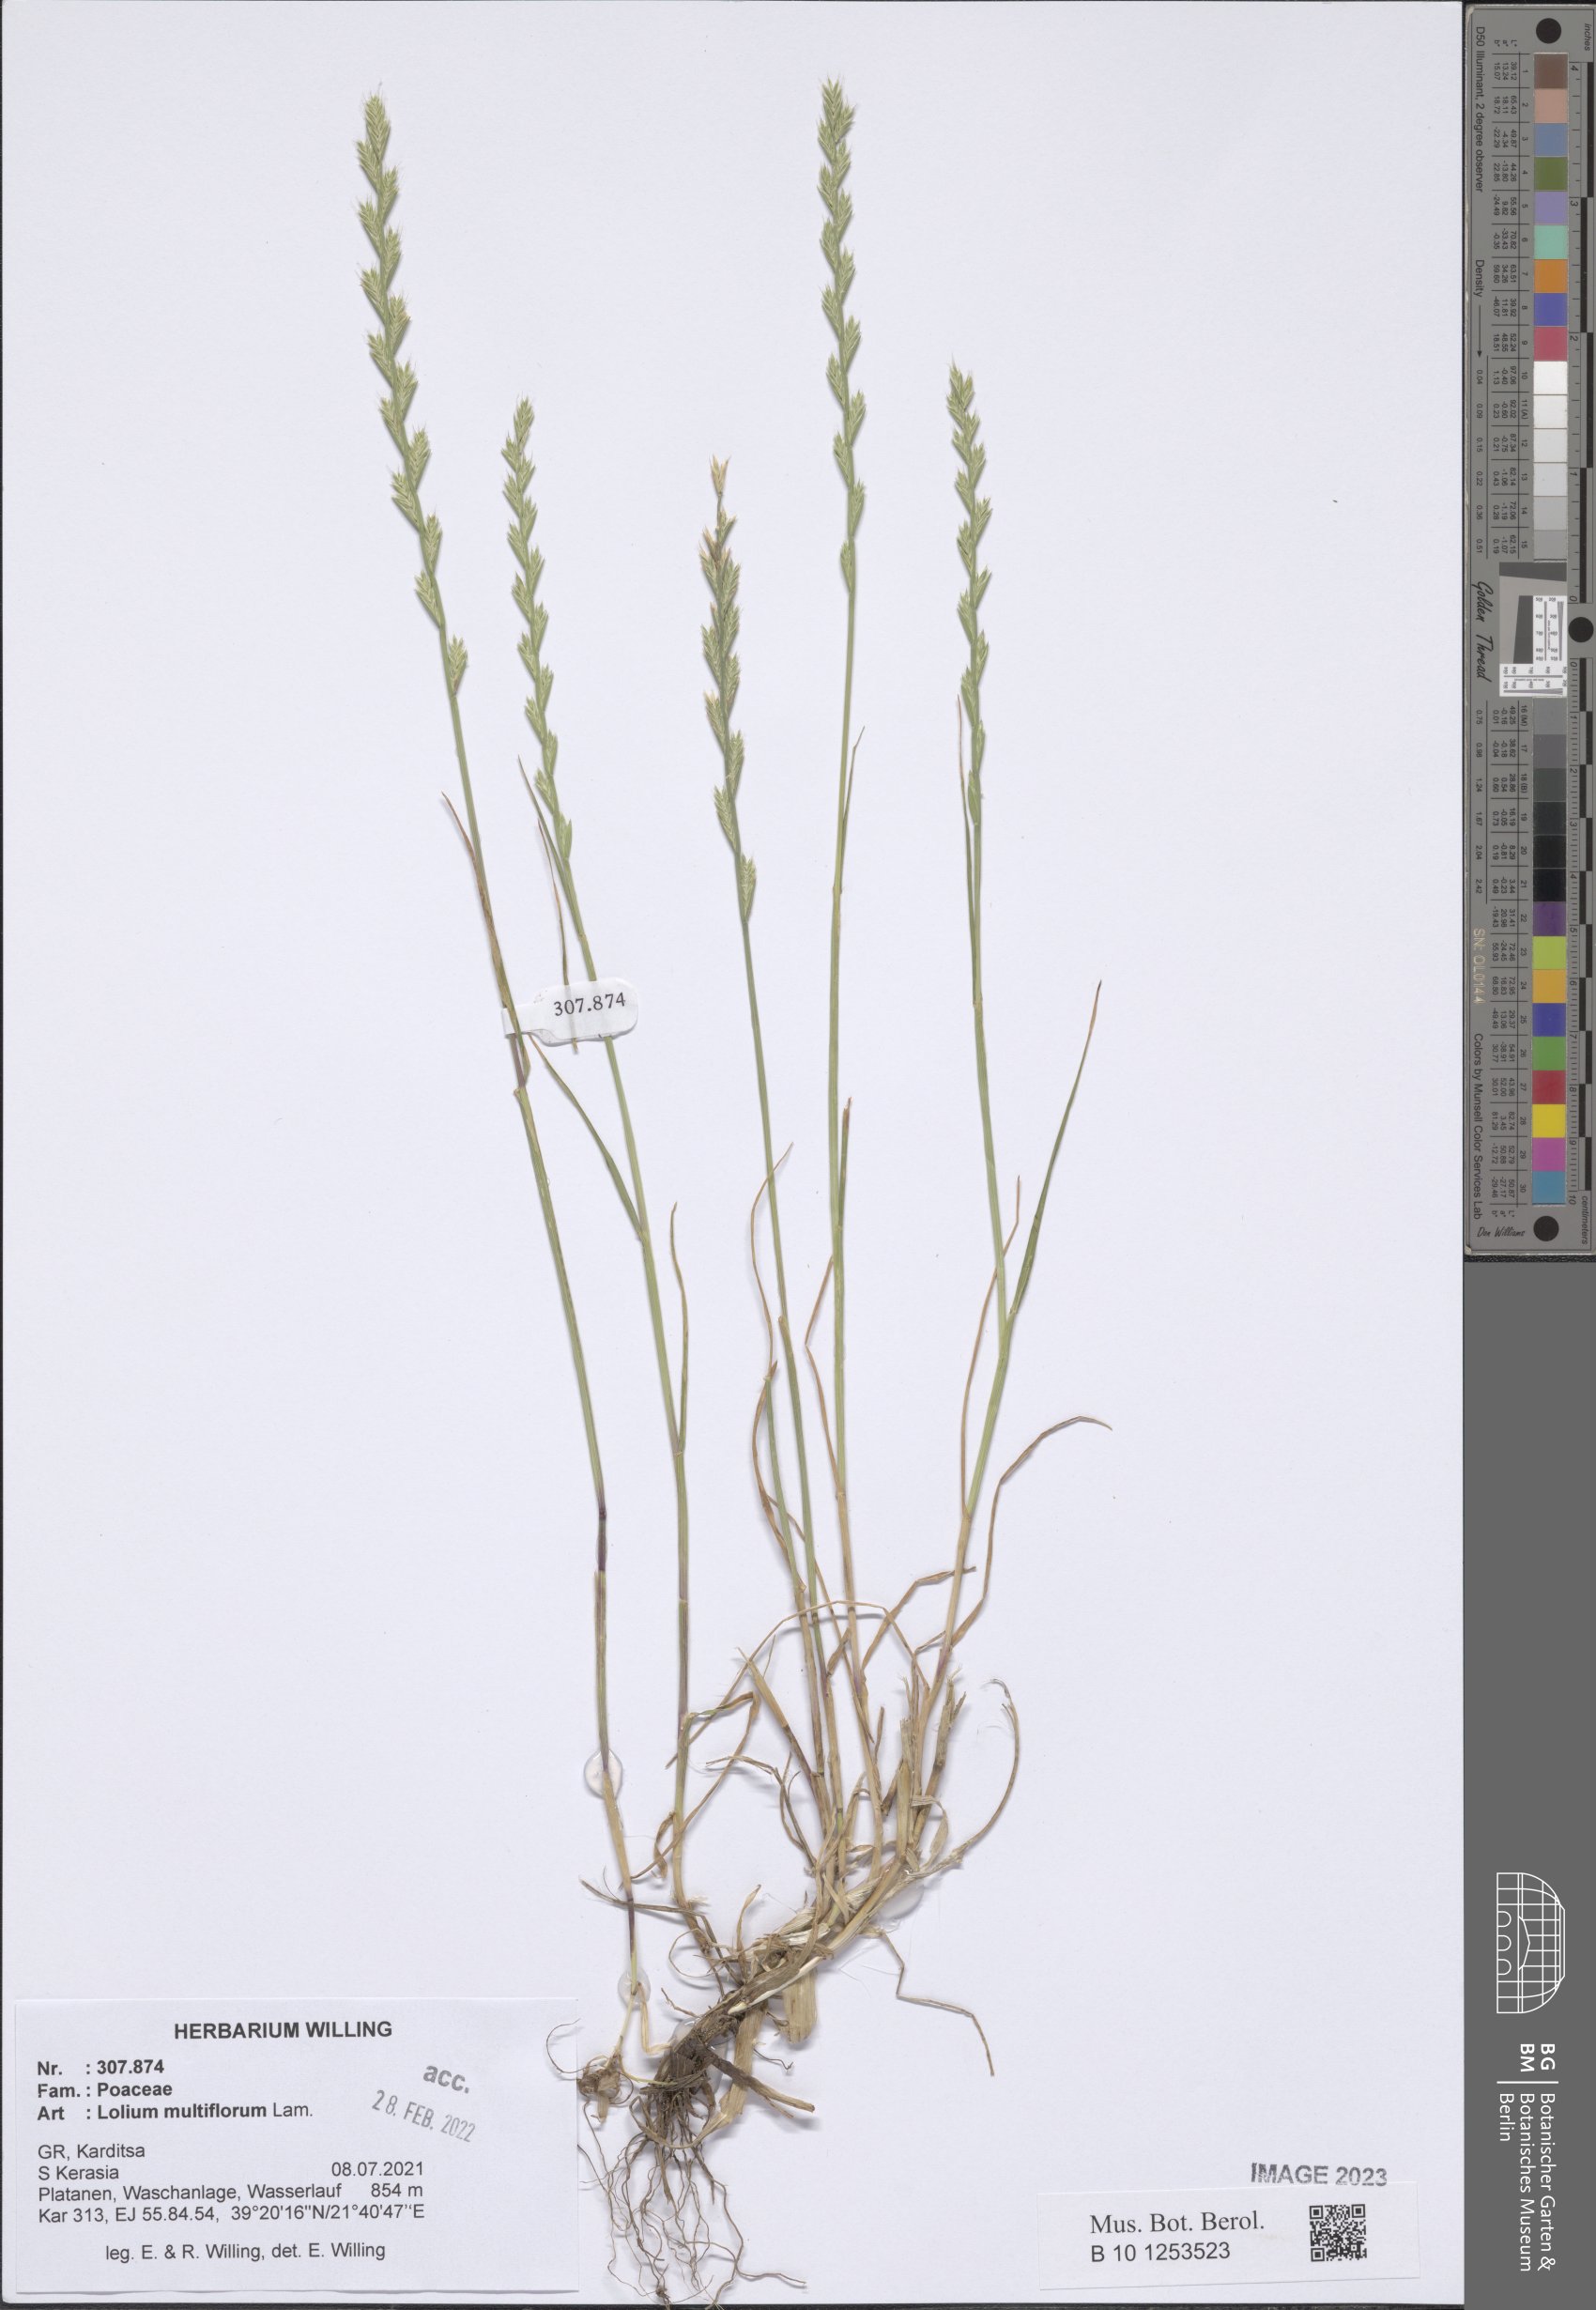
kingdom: Plantae
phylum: Tracheophyta
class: Liliopsida
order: Poales
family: Poaceae
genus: Lolium
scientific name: Lolium multiflorum
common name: Annual ryegrass
